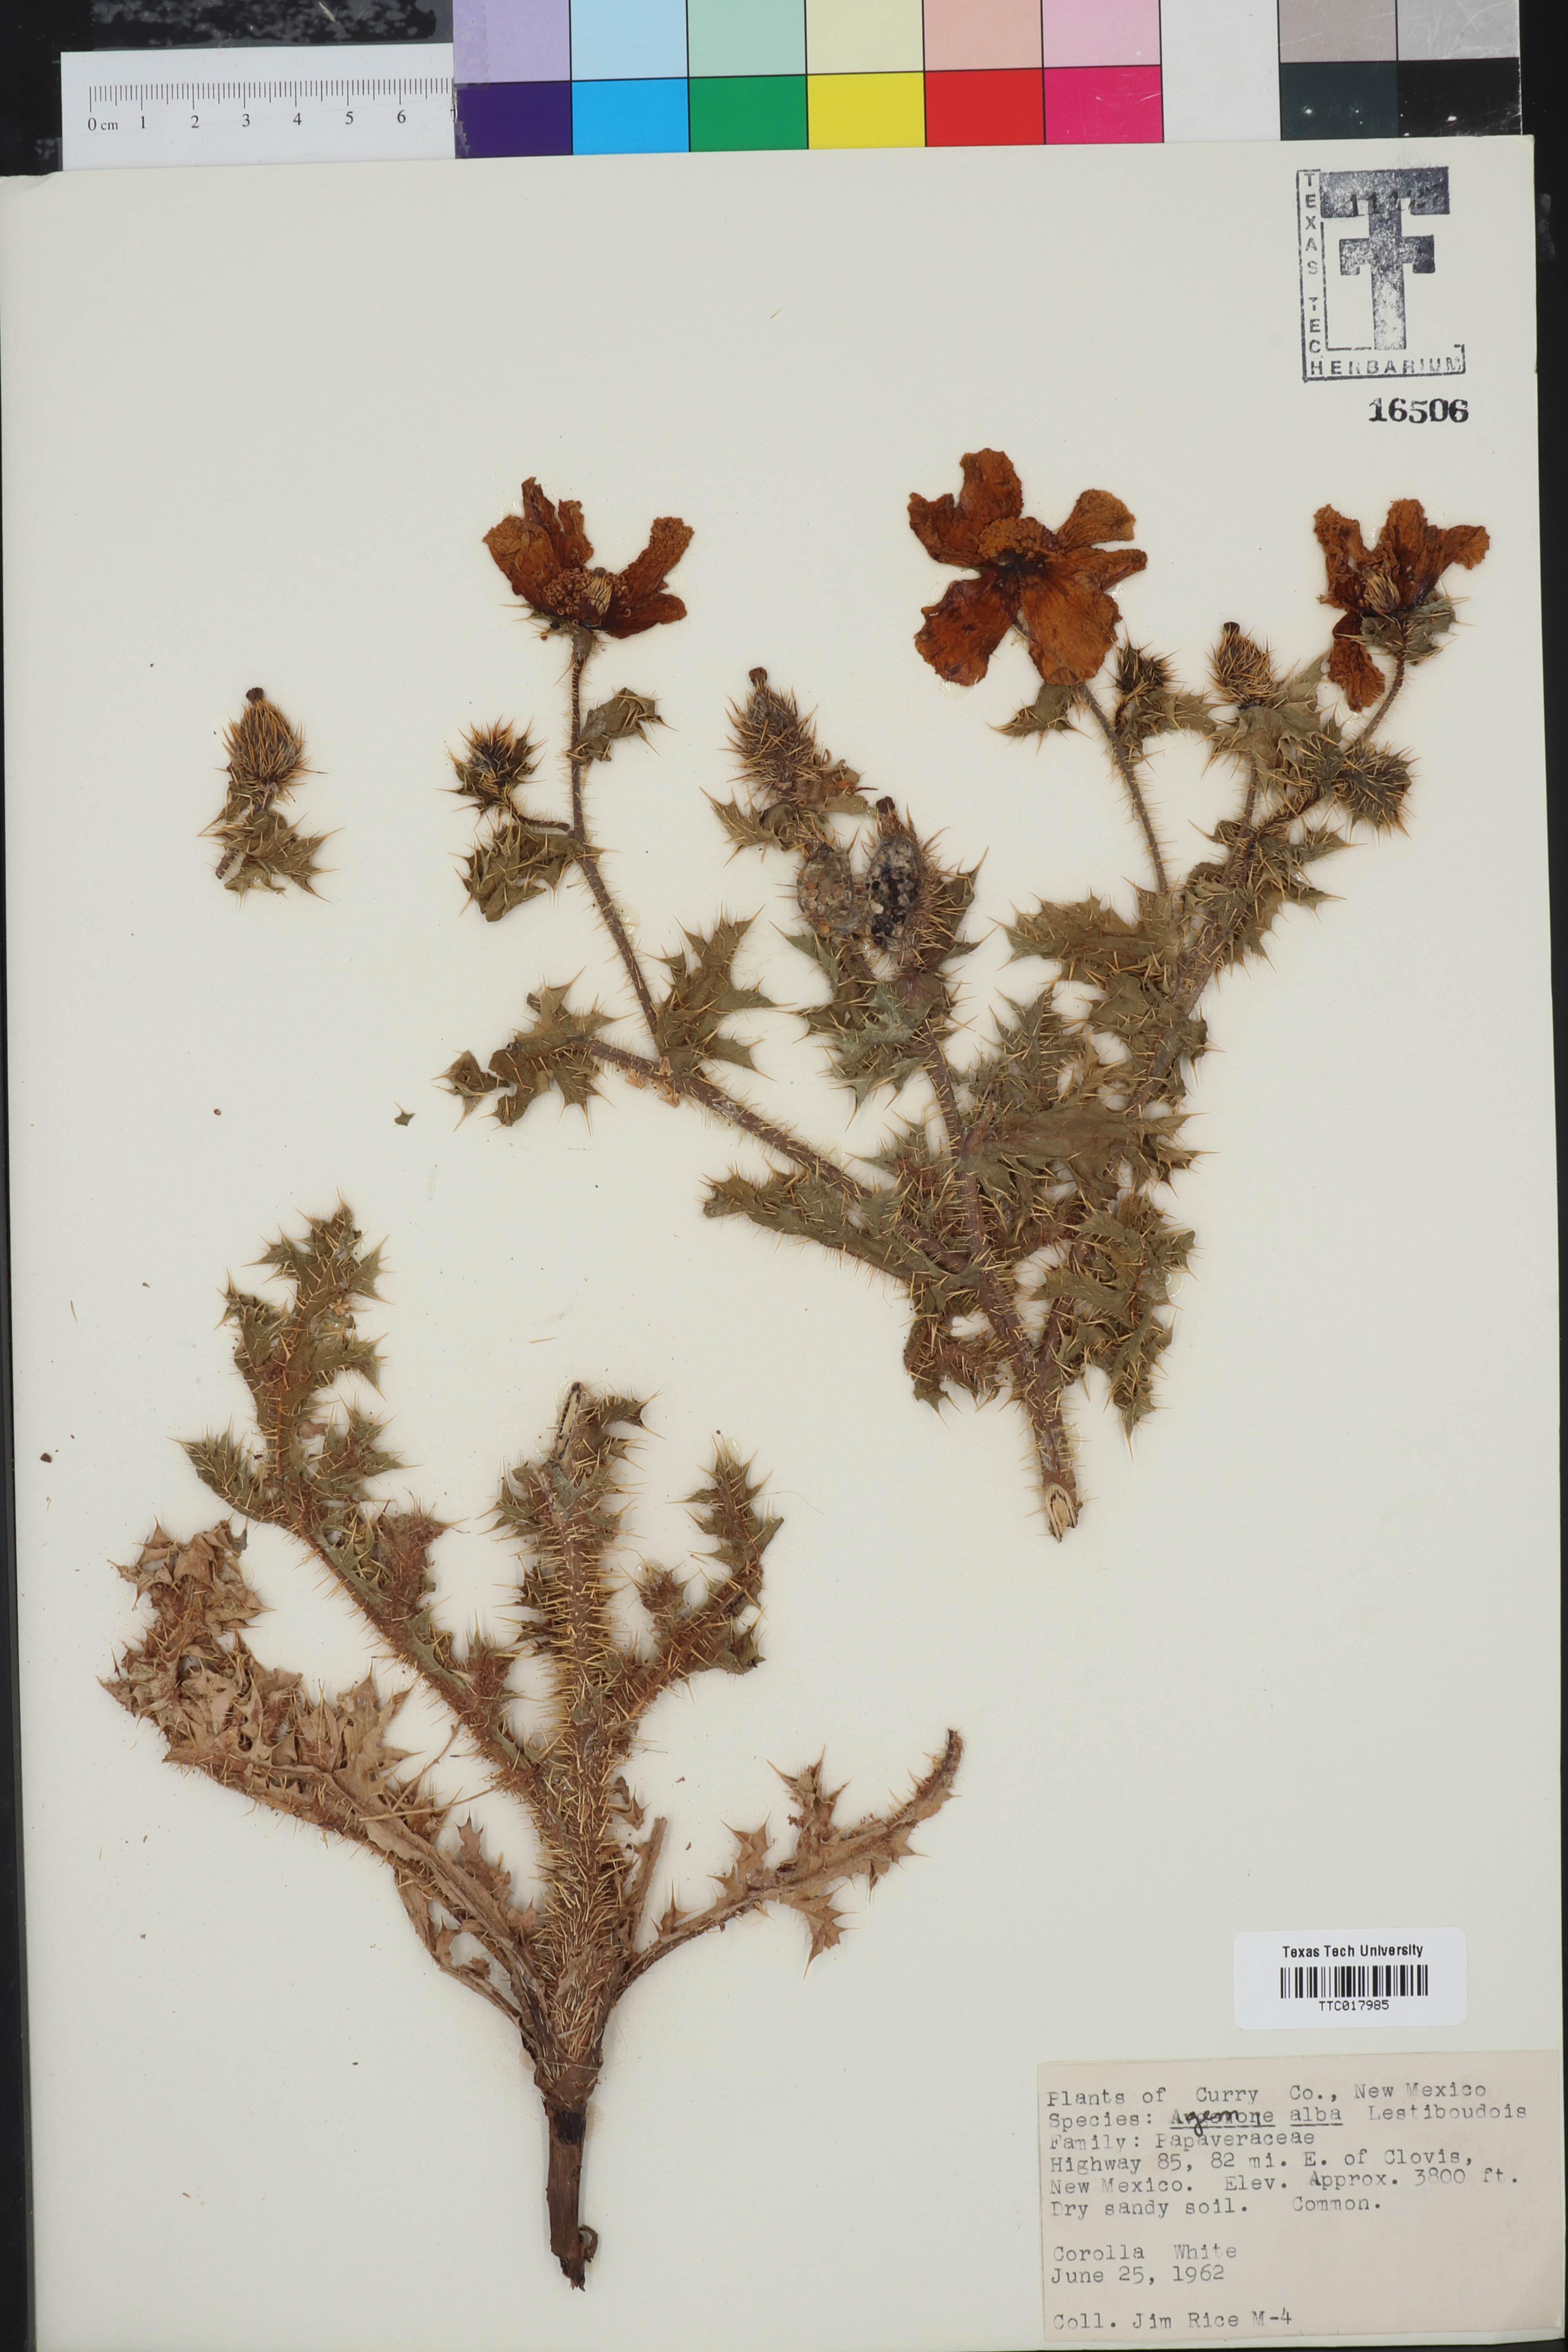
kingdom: Plantae
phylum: Tracheophyta
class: Magnoliopsida
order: Ranunculales
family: Papaveraceae
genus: Argemone
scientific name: Argemone albiflora
